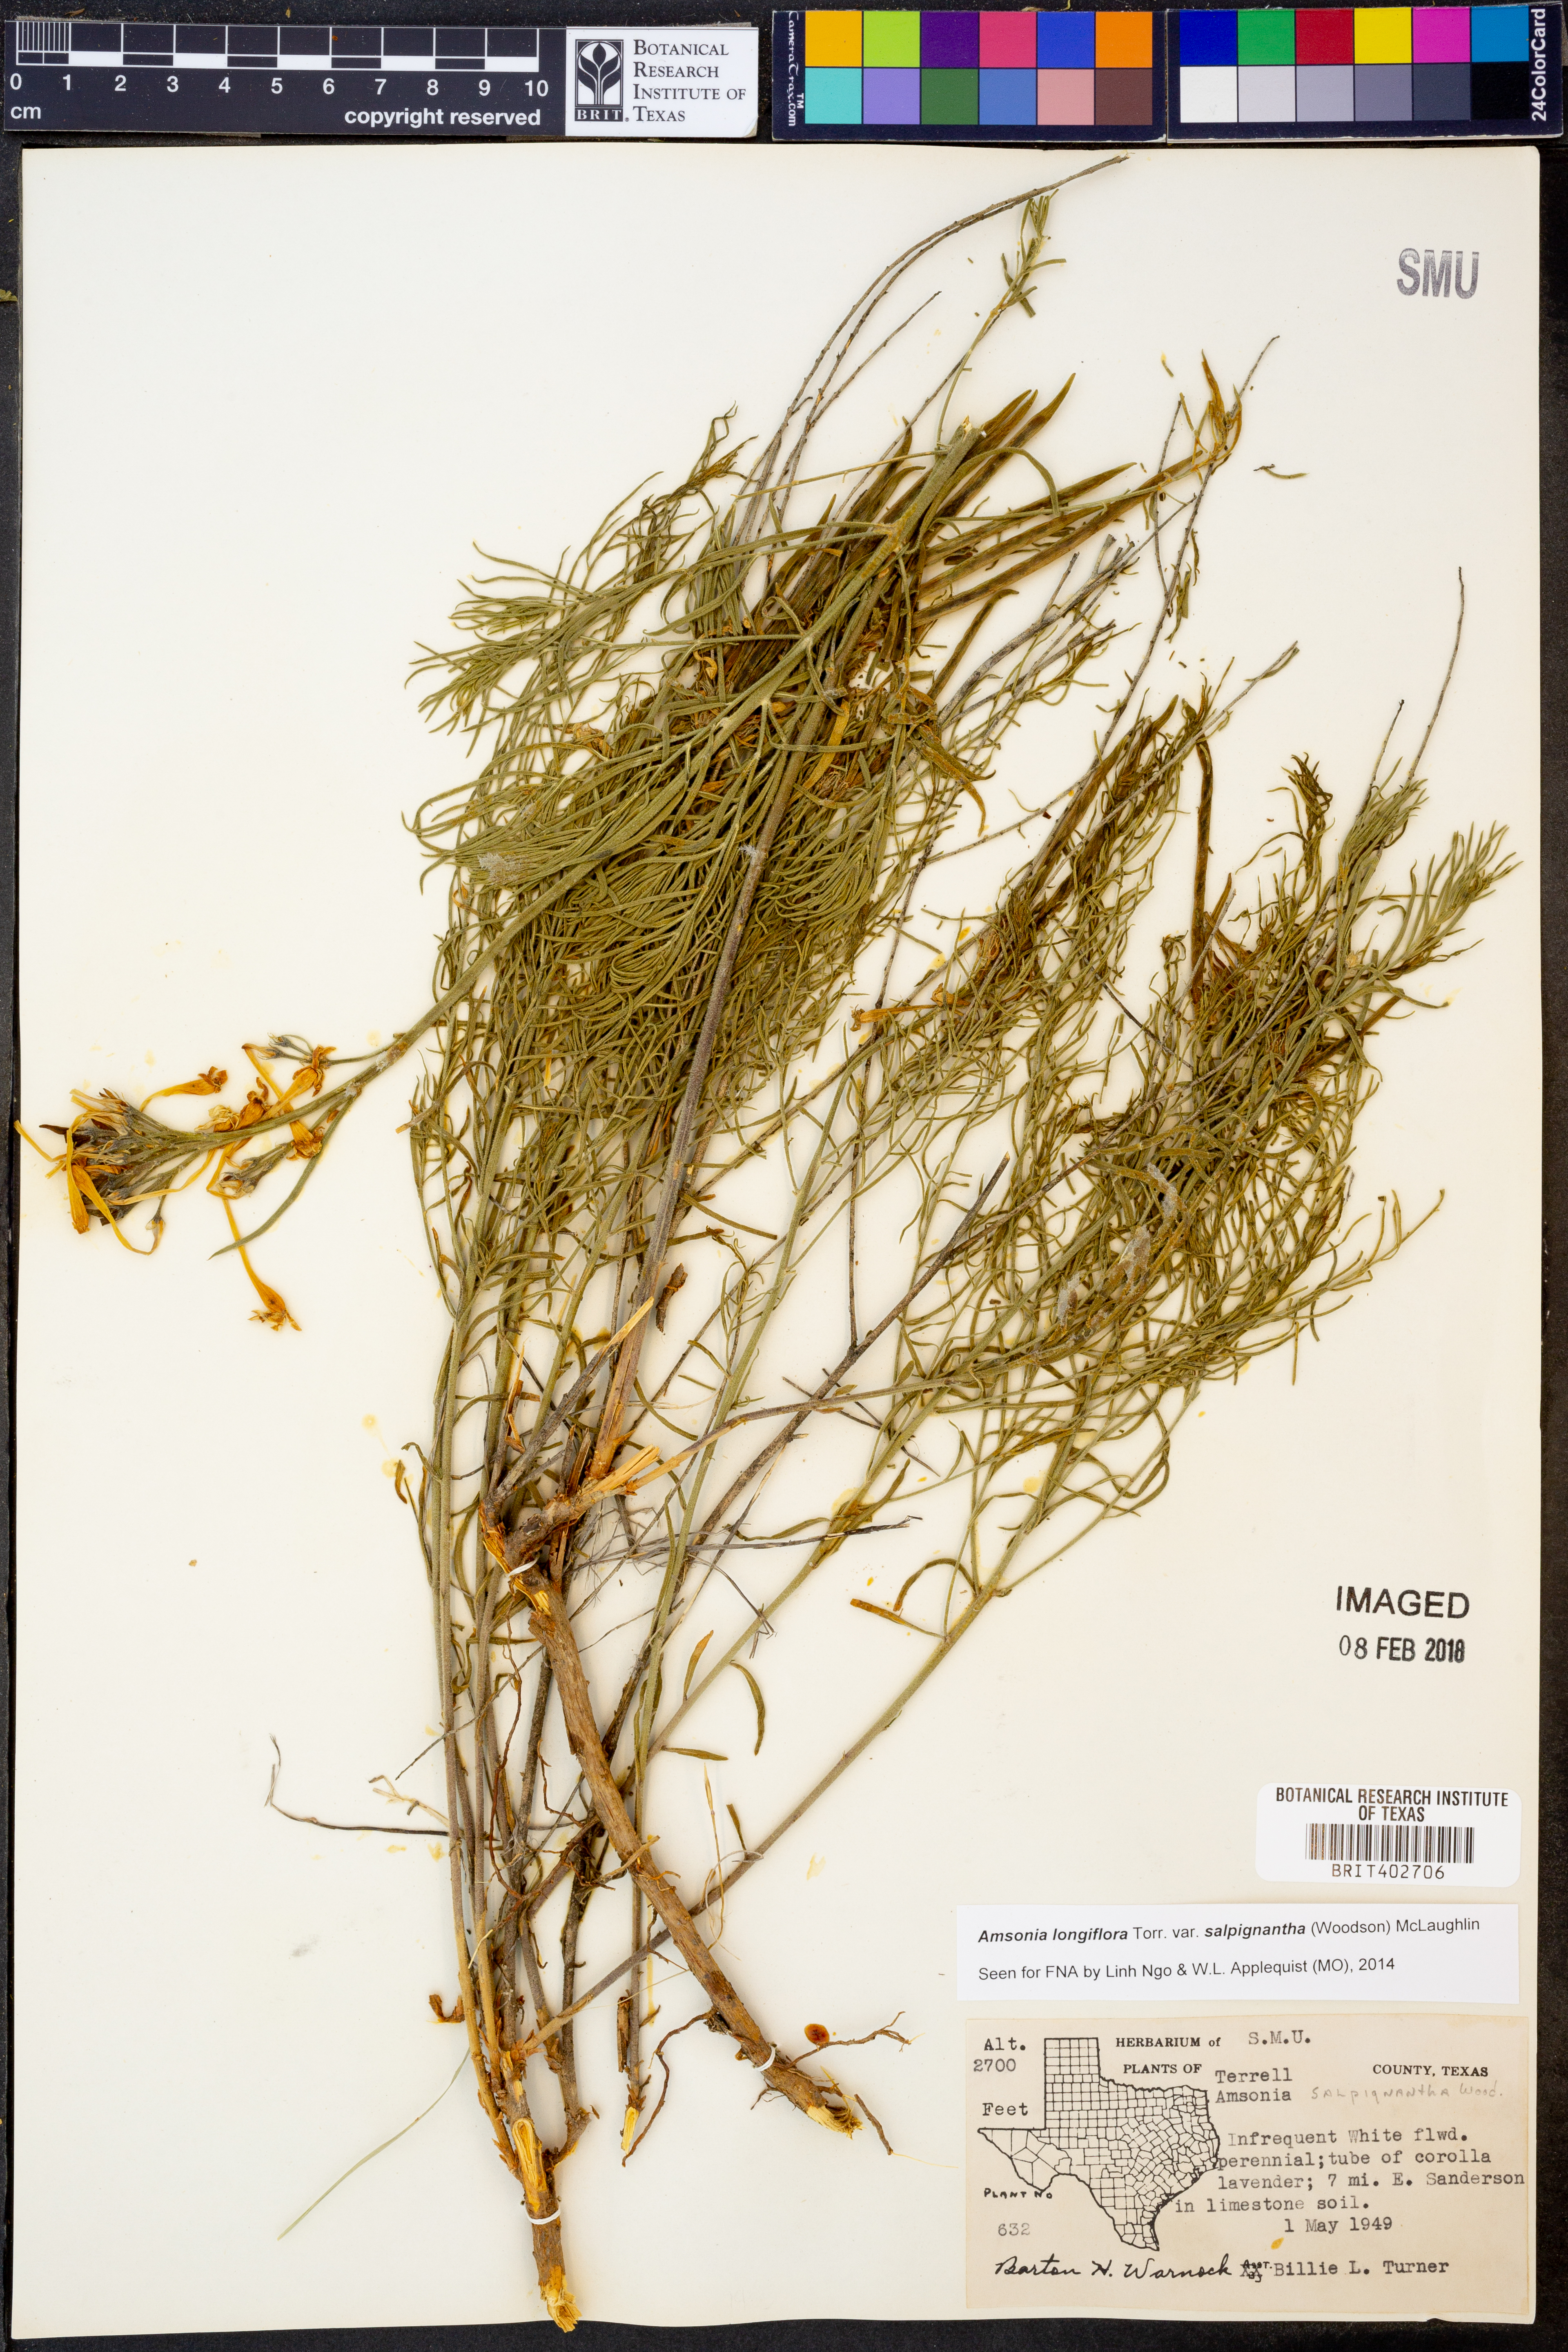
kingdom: Plantae
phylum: Tracheophyta
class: Magnoliopsida
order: Gentianales
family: Apocynaceae
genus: Amsonia
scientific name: Amsonia longiflora
